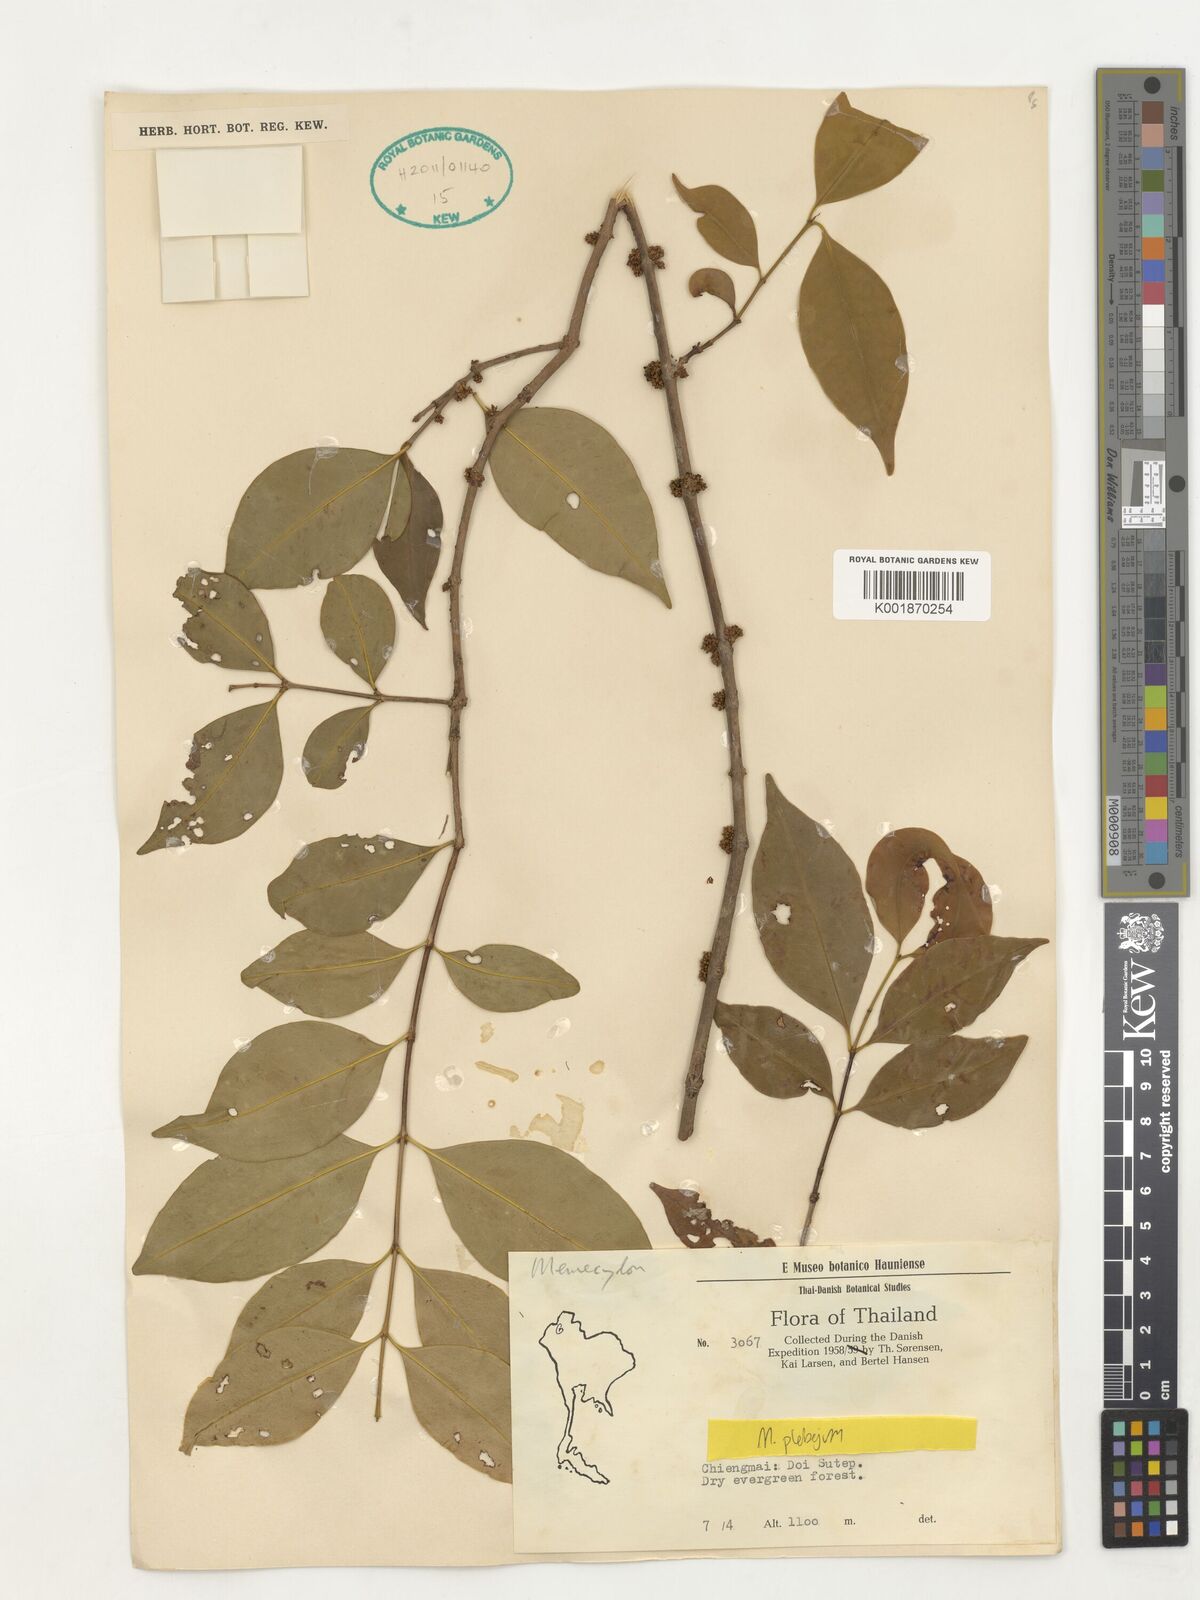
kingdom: Plantae
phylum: Tracheophyta
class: Magnoliopsida
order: Myrtales
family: Melastomataceae
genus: Memecylon
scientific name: Memecylon plebejum
